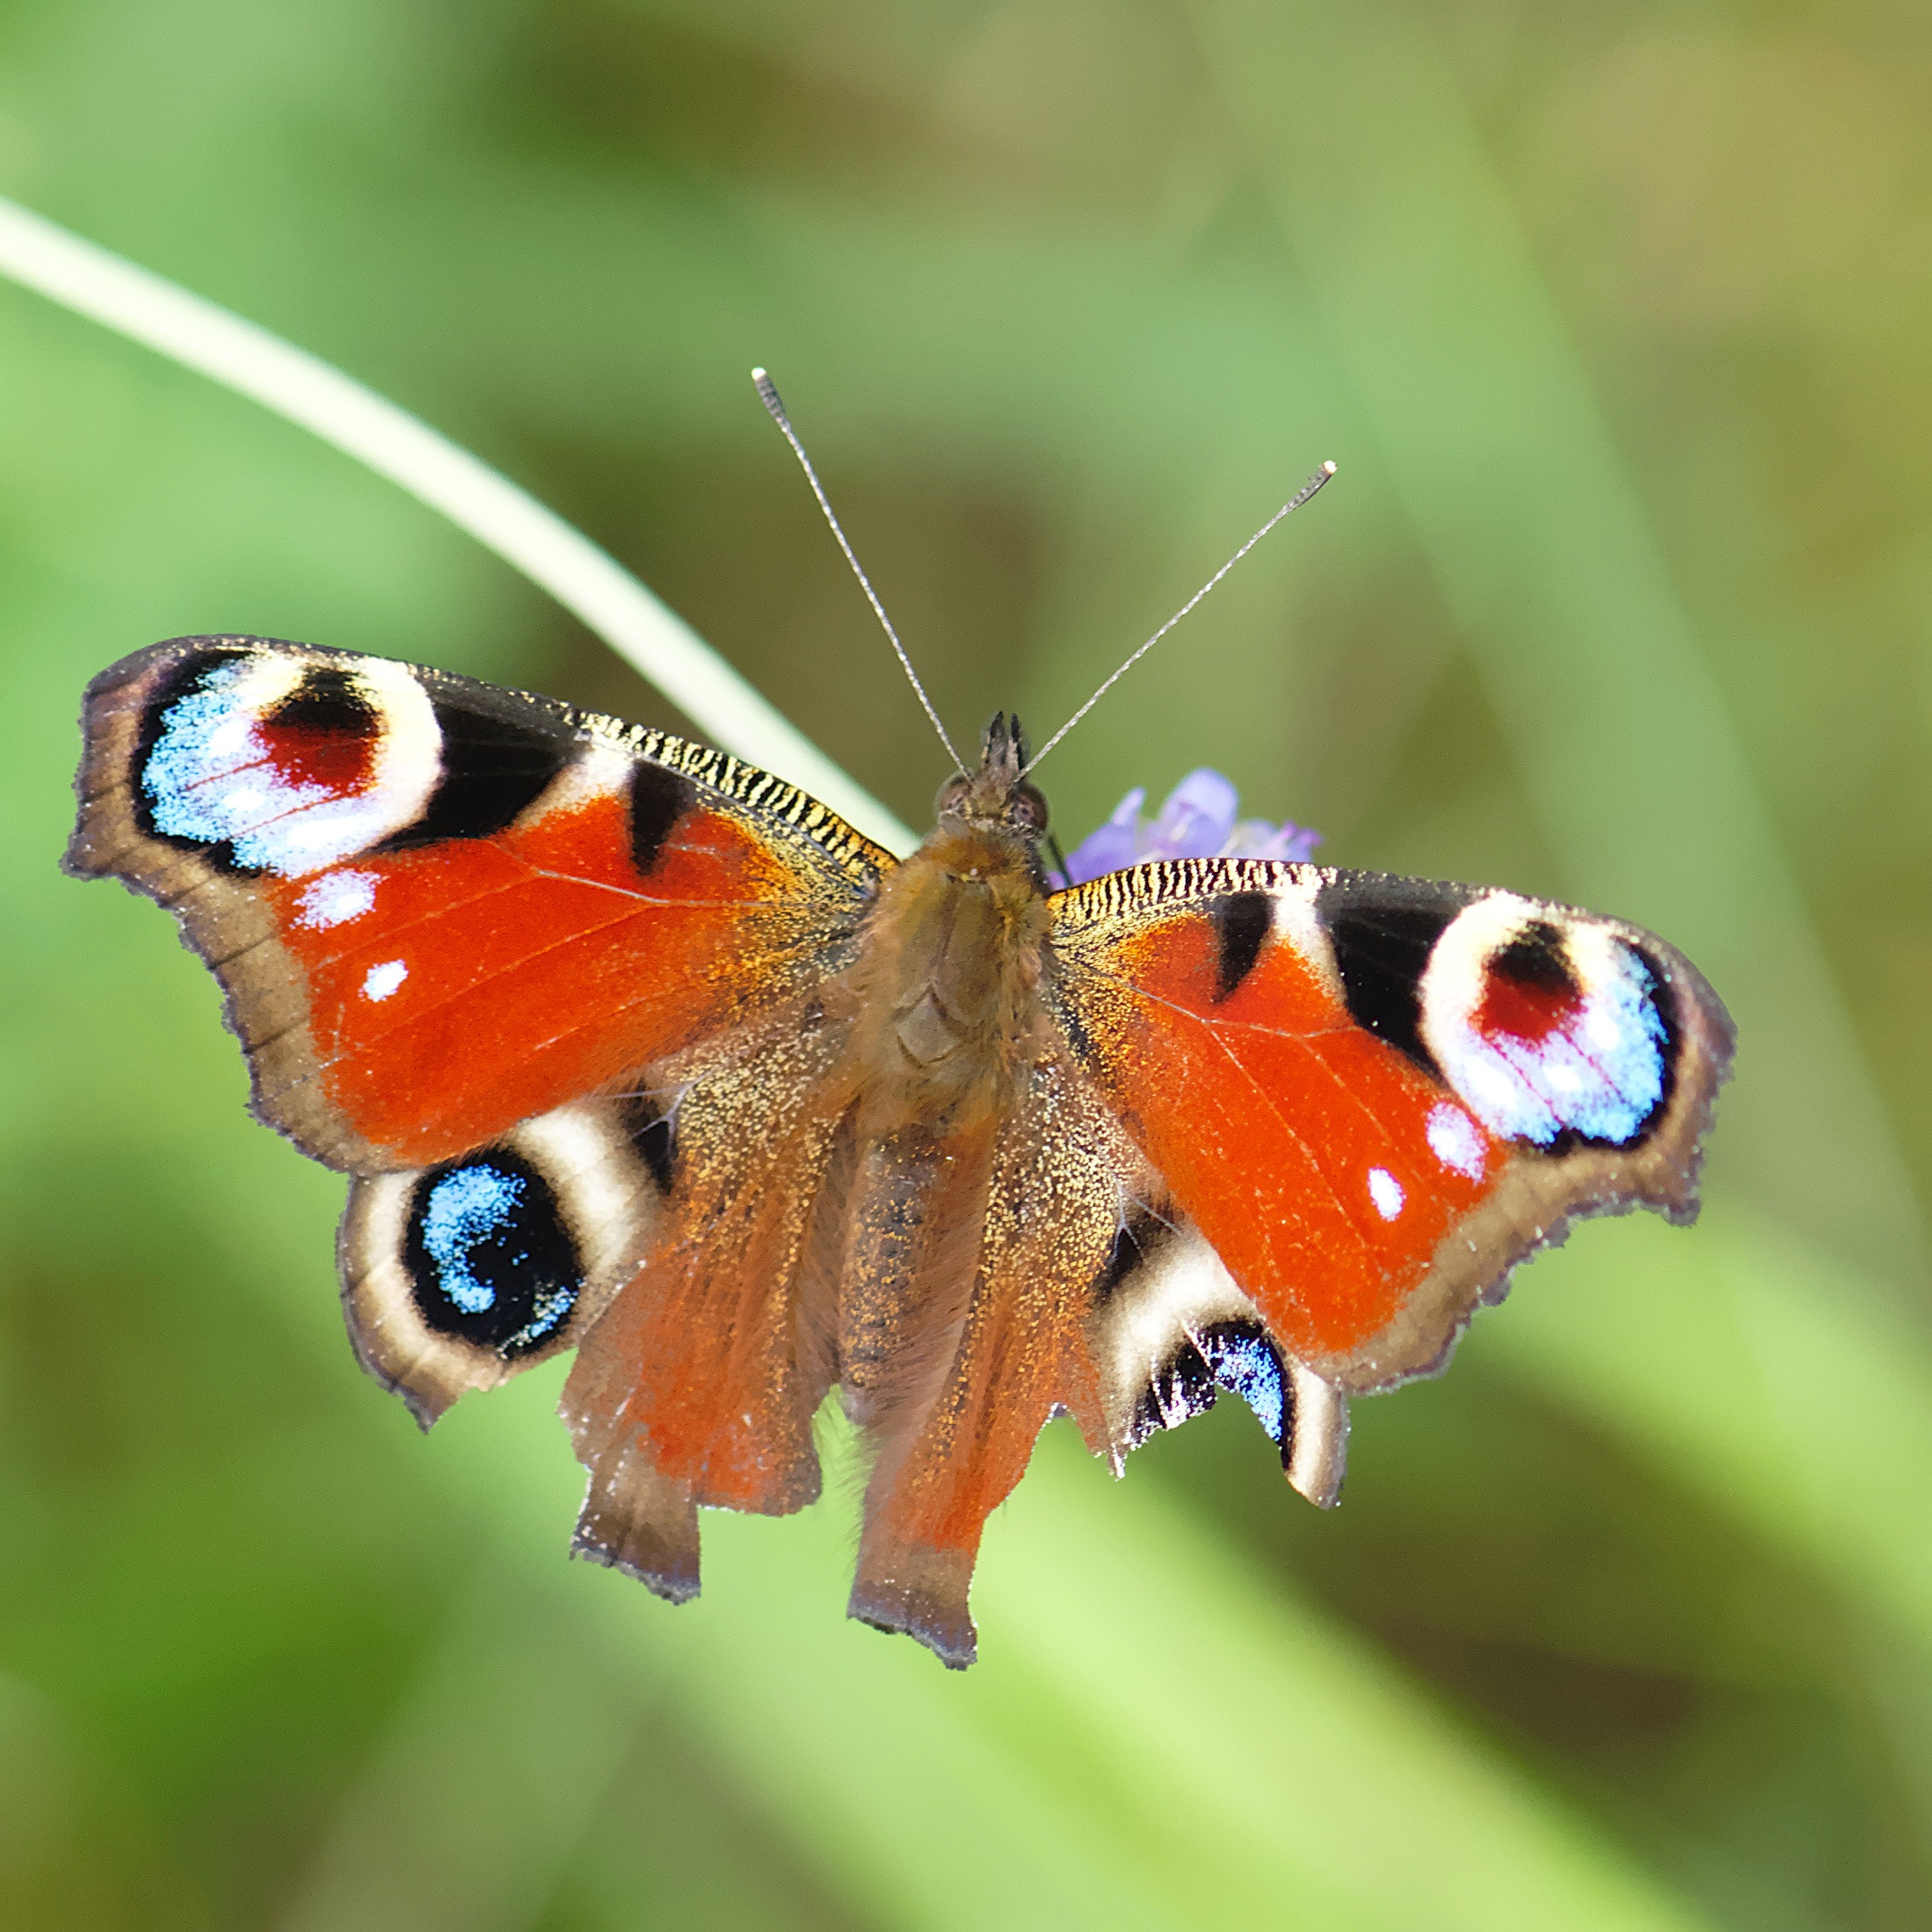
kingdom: Animalia
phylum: Arthropoda
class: Insecta
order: Lepidoptera
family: Nymphalidae
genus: Aglais
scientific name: Aglais io
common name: Dagpåfugleøje
